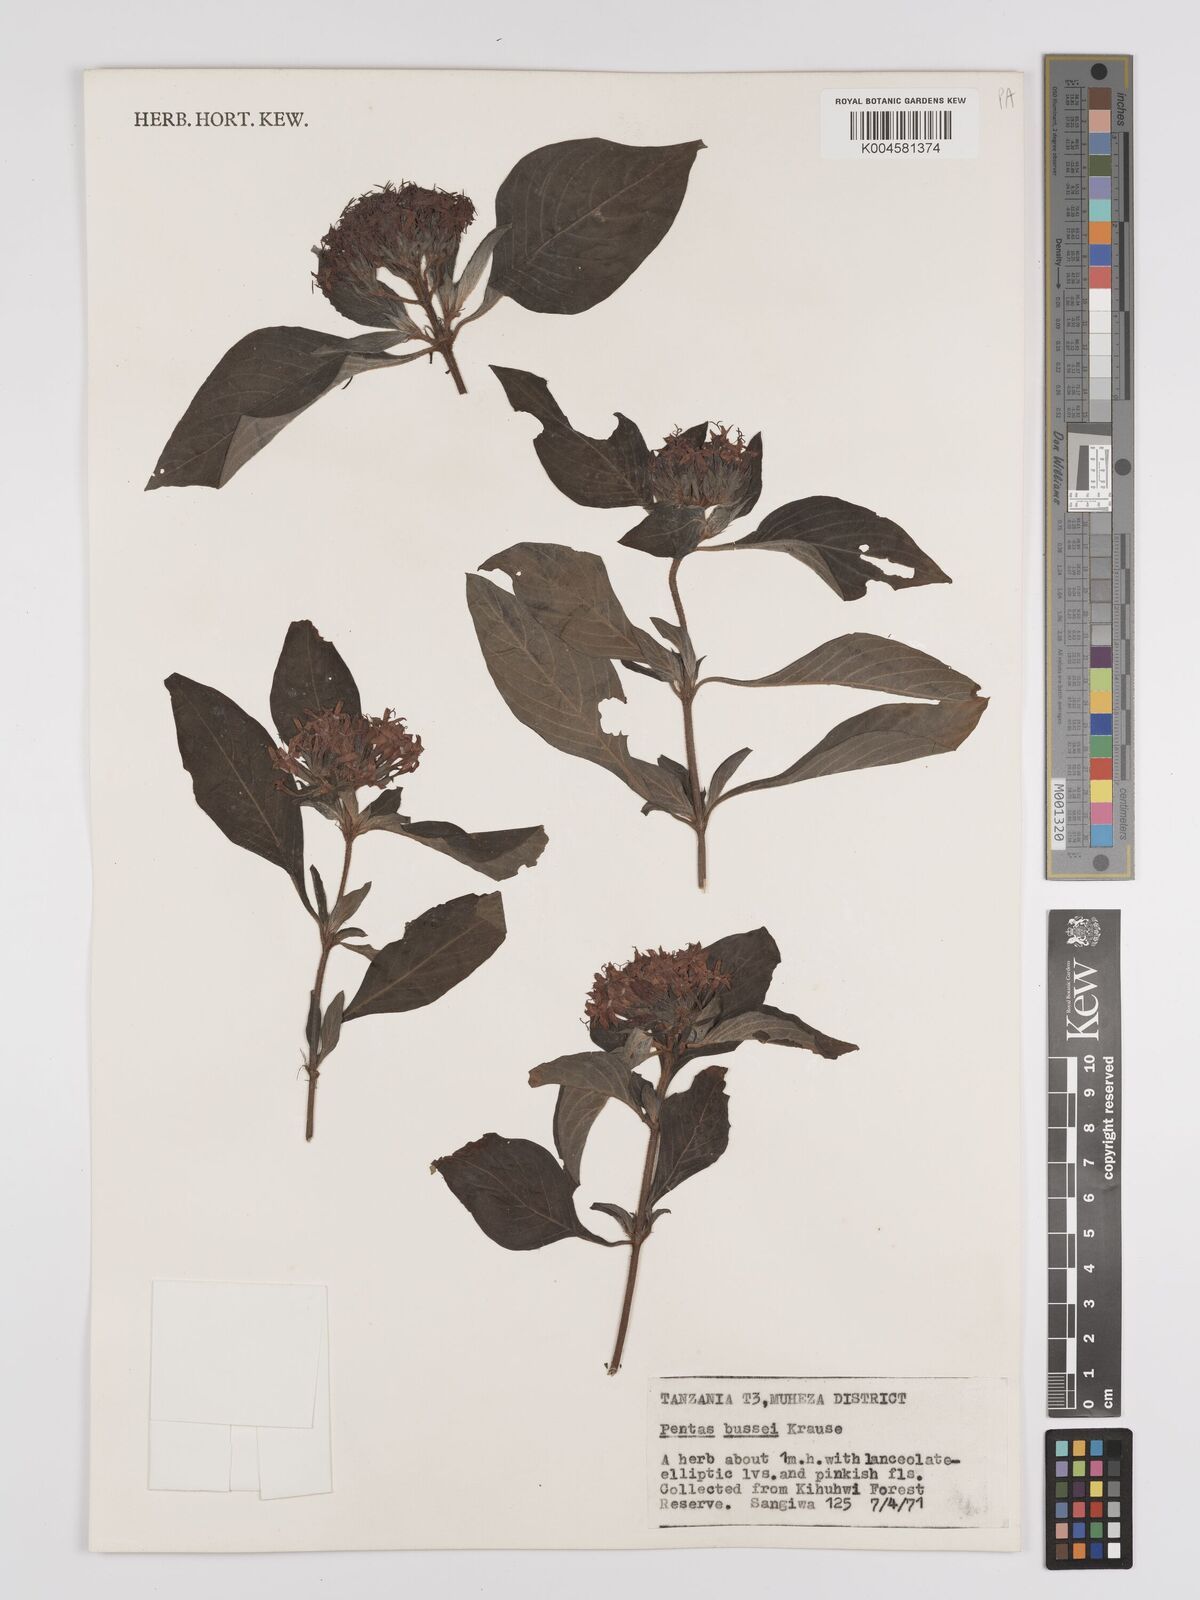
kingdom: Plantae
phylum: Tracheophyta
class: Magnoliopsida
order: Gentianales
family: Rubiaceae
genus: Rhodopentas
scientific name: Rhodopentas bussei
